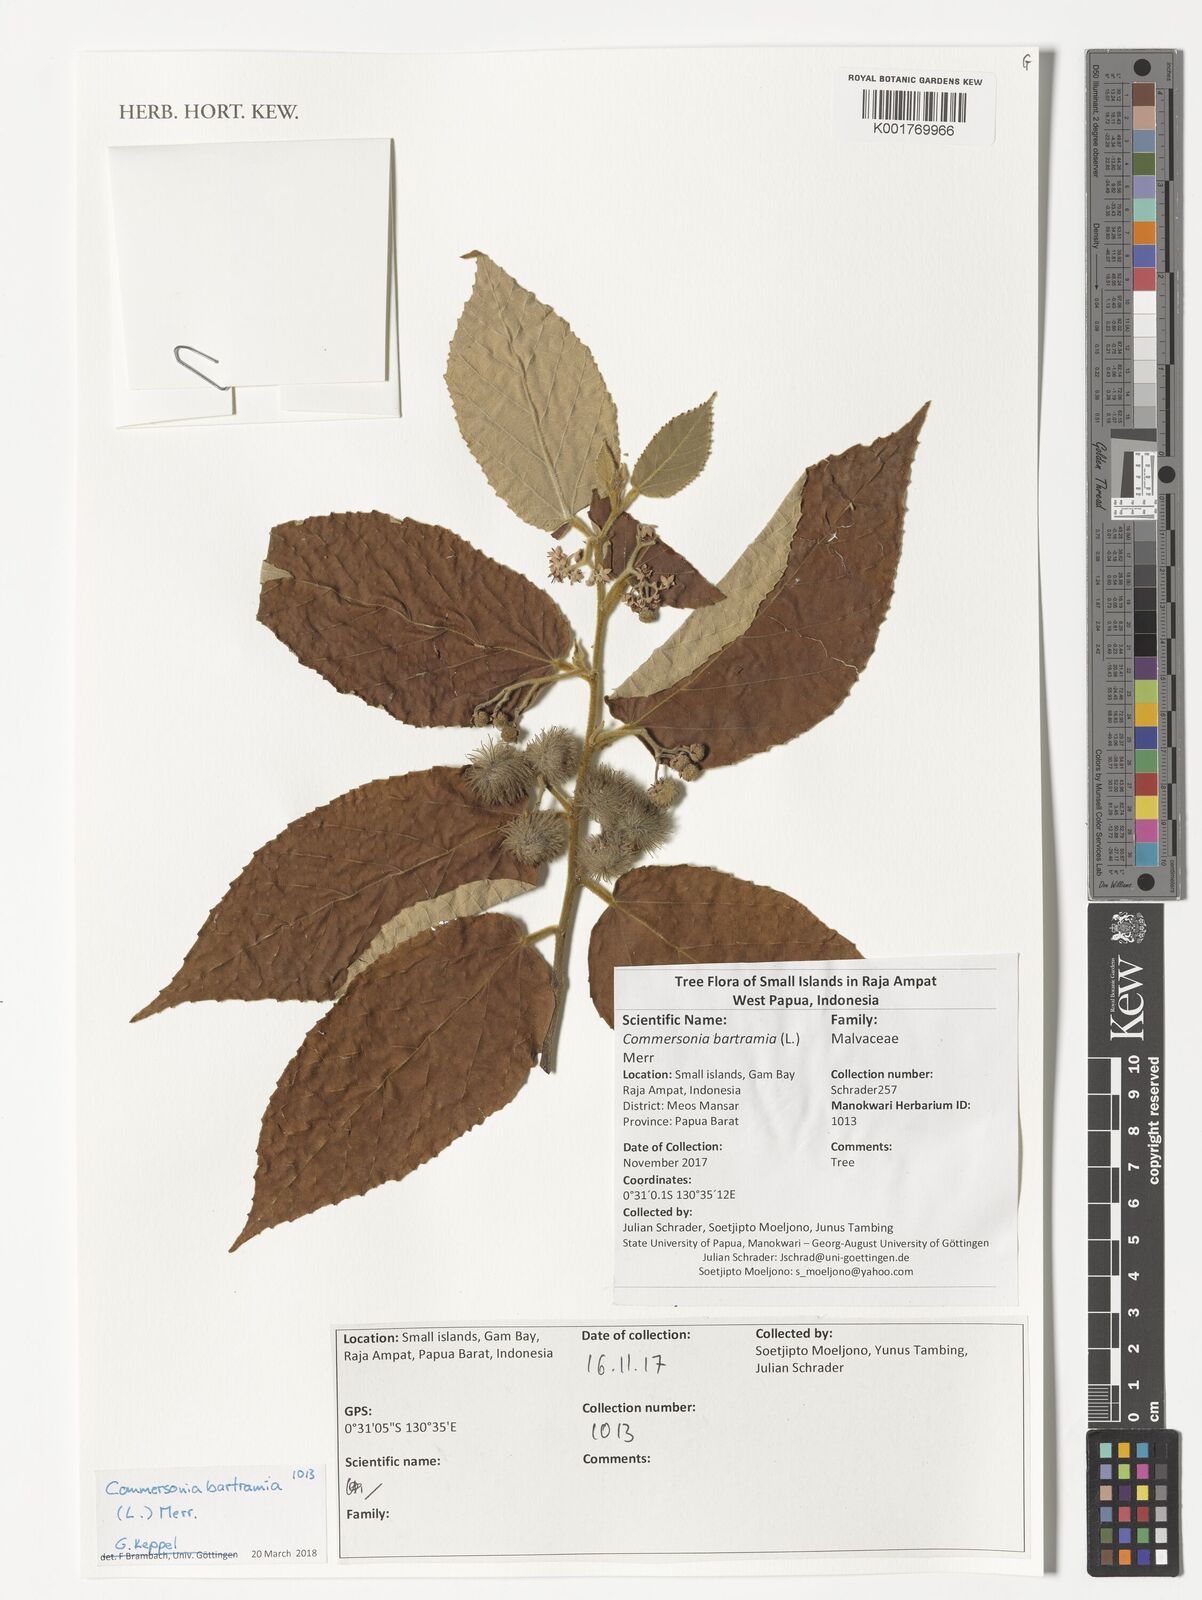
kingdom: Plantae
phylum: Tracheophyta
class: Magnoliopsida
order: Malvales
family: Malvaceae
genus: Commersonia
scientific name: Commersonia bartramia
